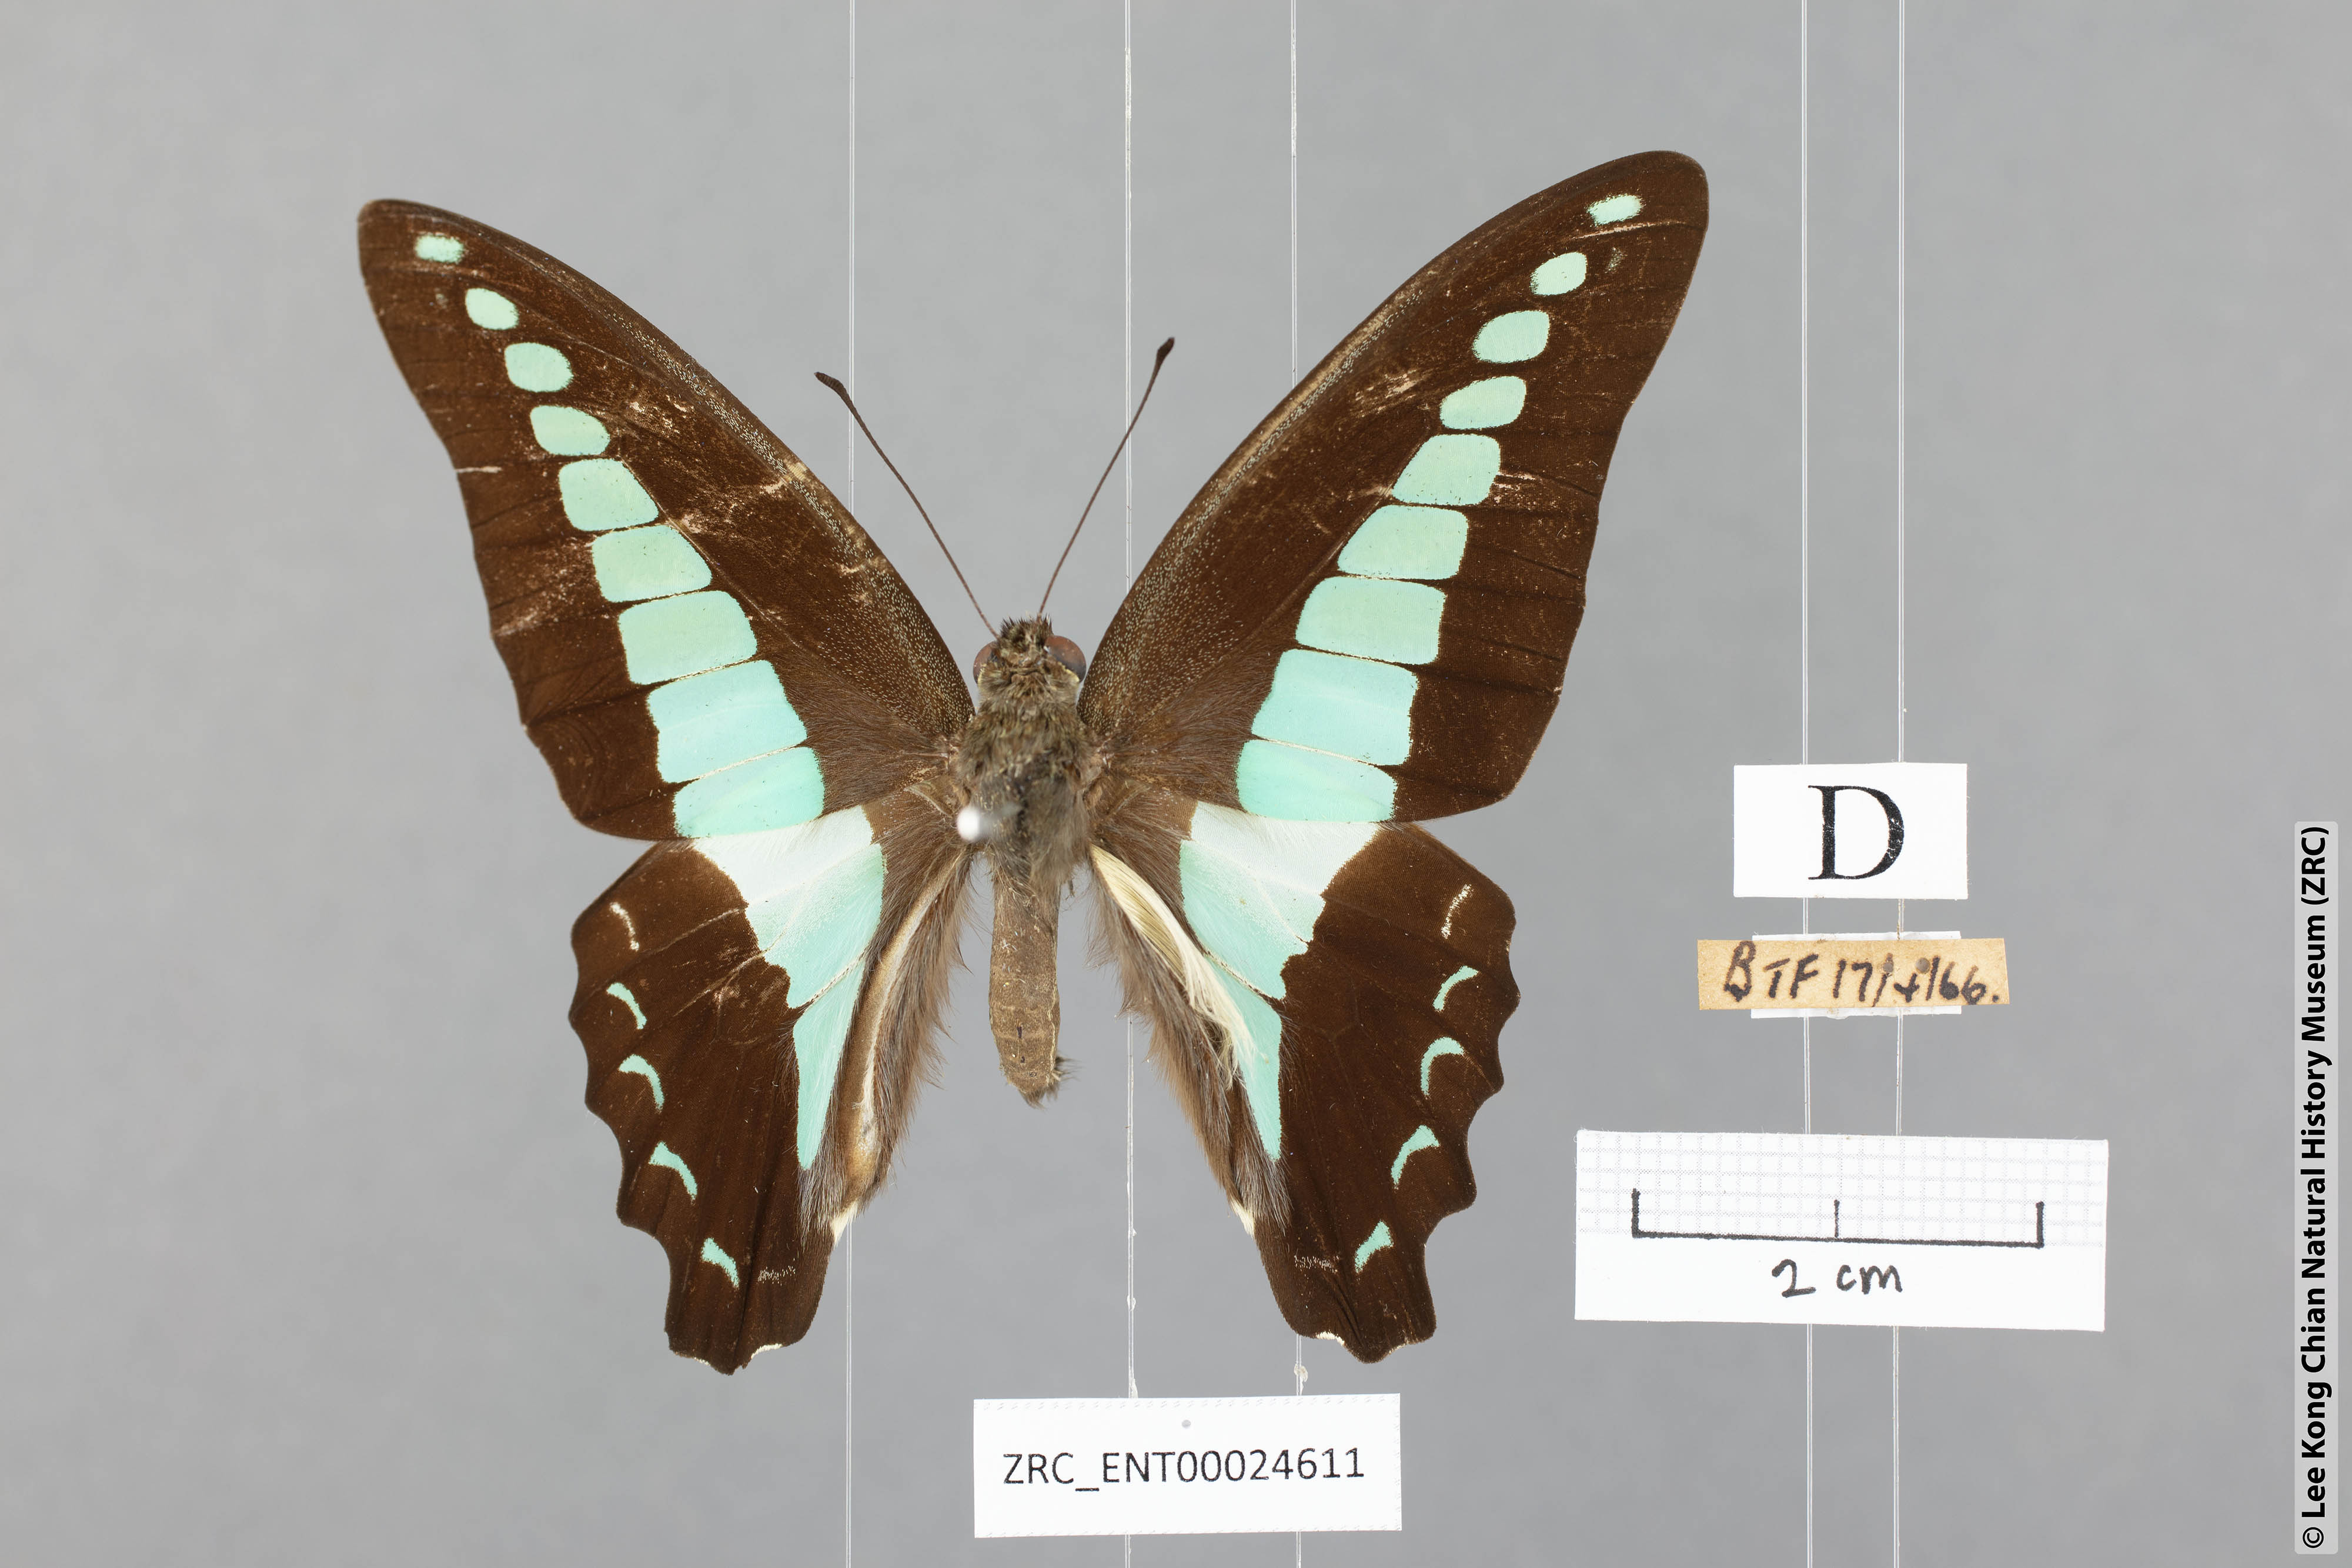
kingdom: Fungi
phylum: Ascomycota
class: Sordariomycetes
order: Microascales
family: Microascaceae
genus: Graphium
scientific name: Graphium sarpedon
